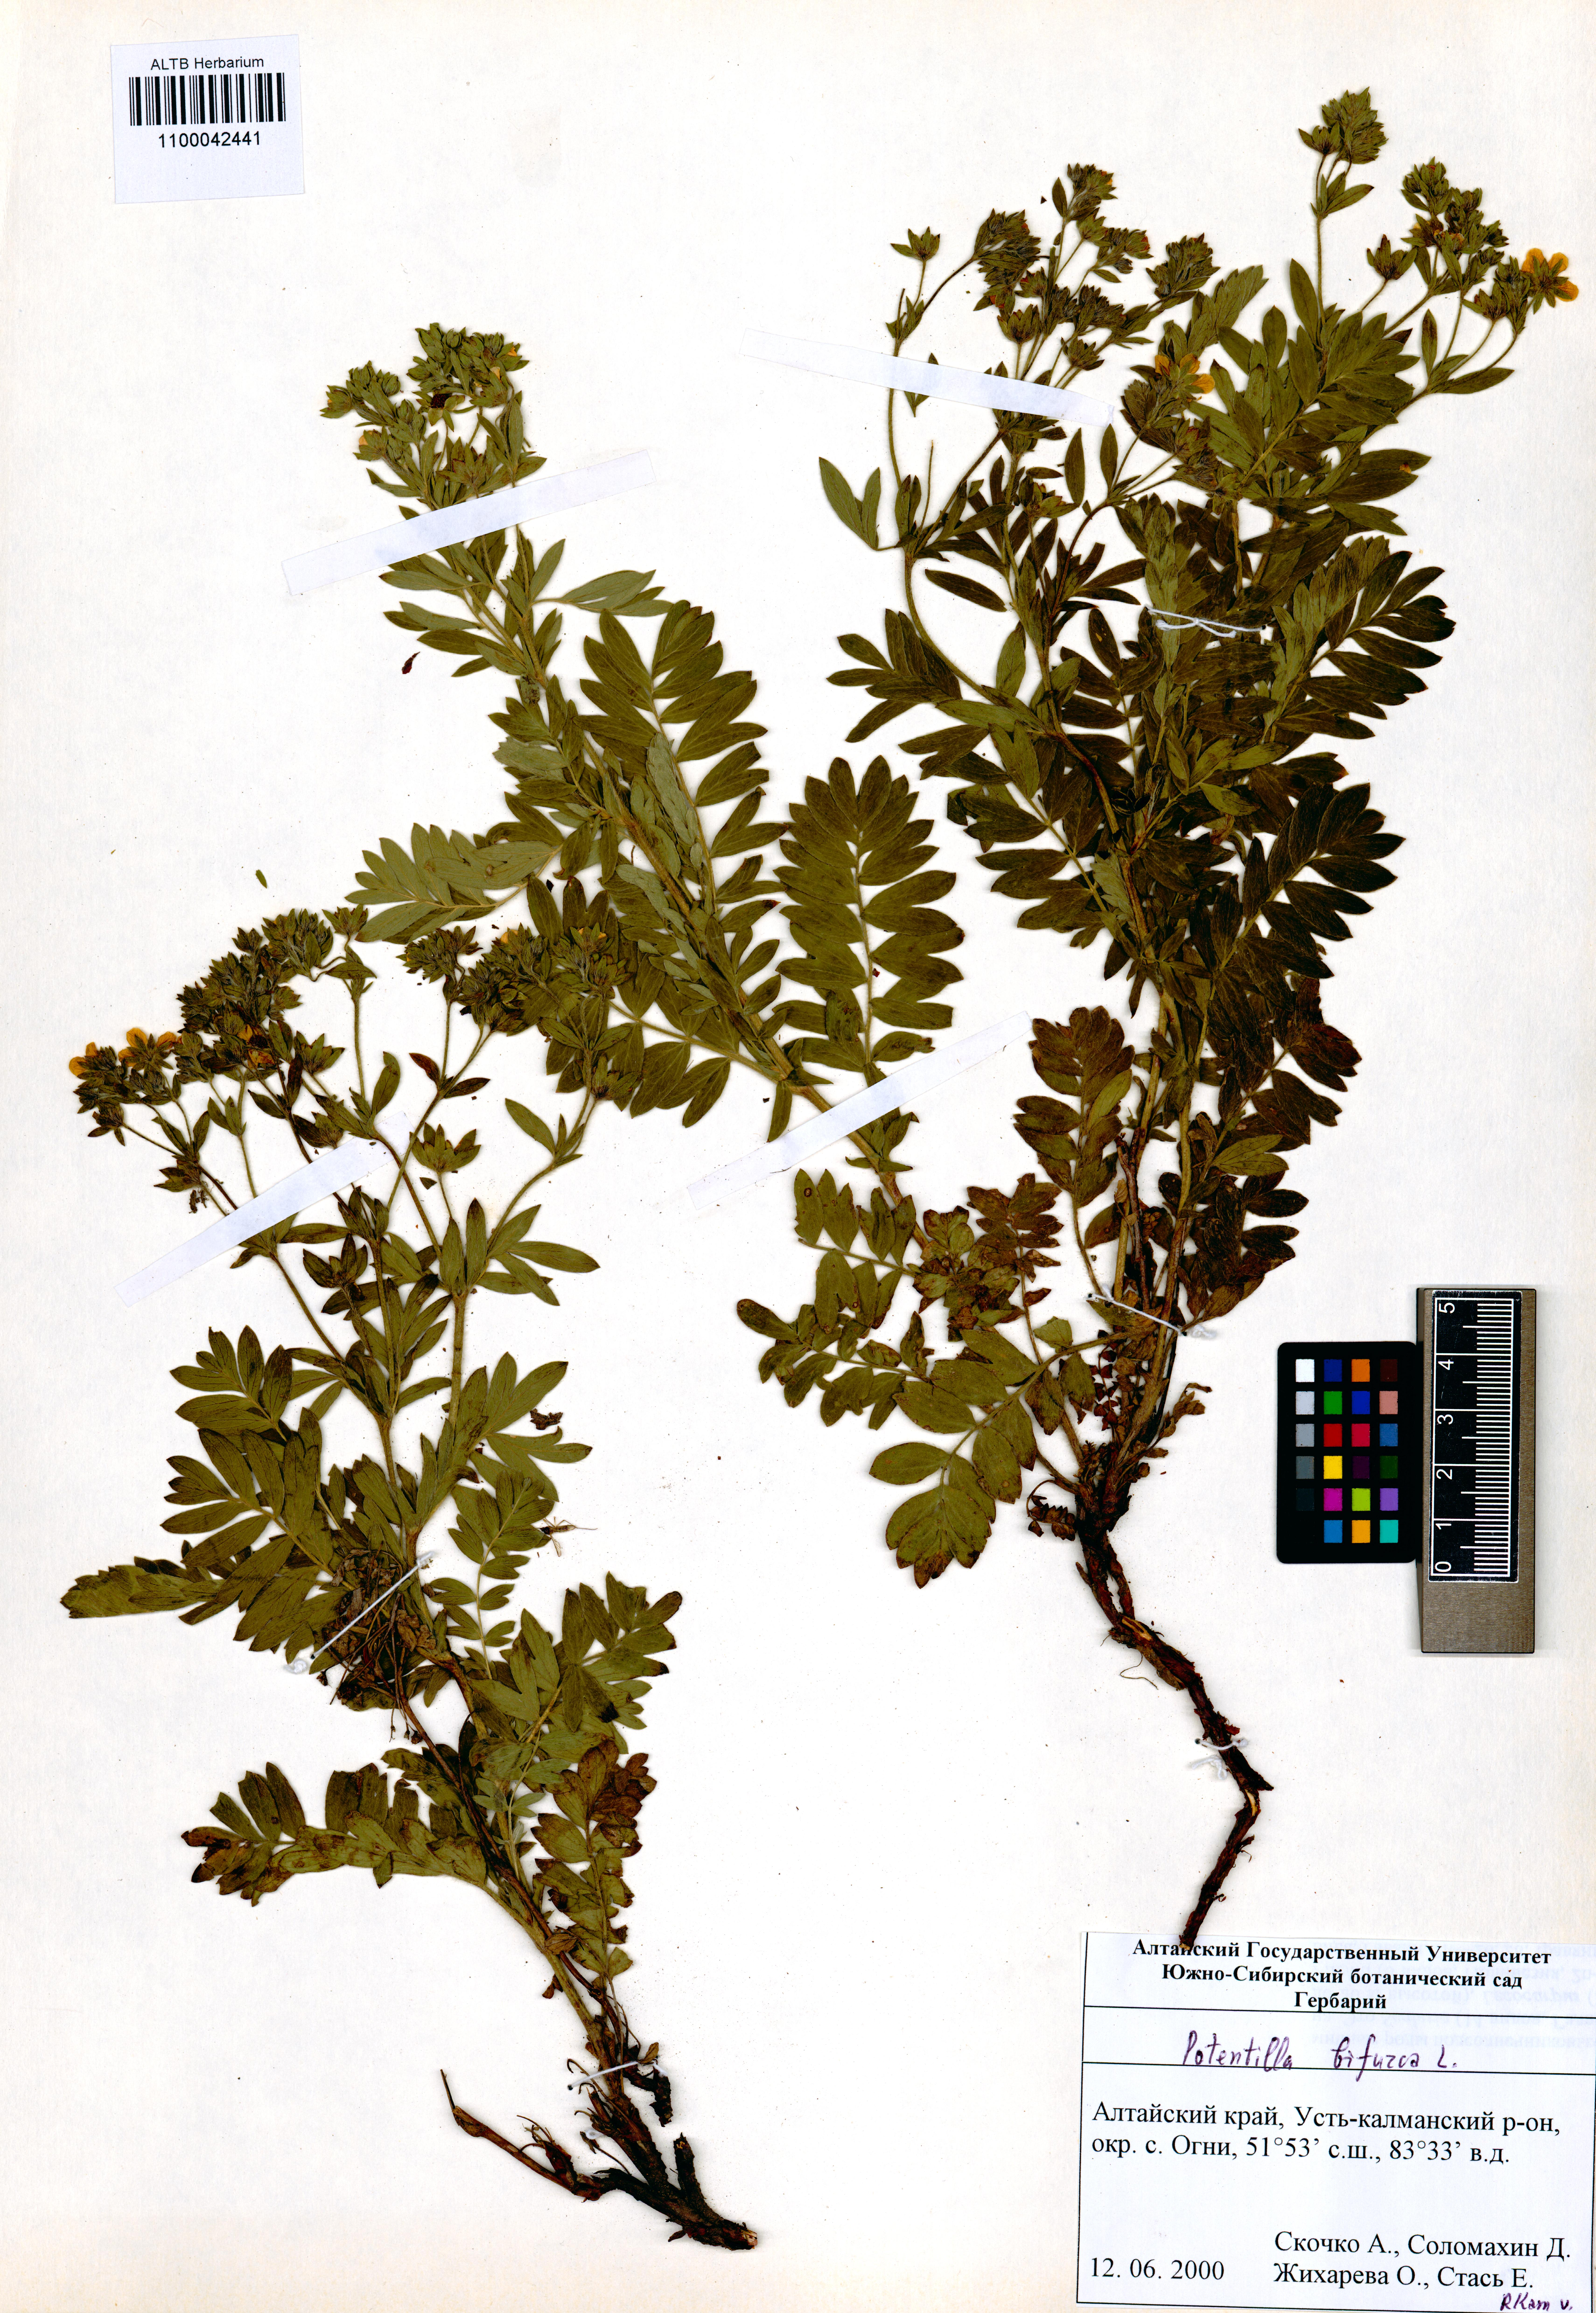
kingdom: Plantae
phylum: Tracheophyta
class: Magnoliopsida
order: Rosales
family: Rosaceae
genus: Sibbaldianthe
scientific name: Sibbaldianthe bifurca
